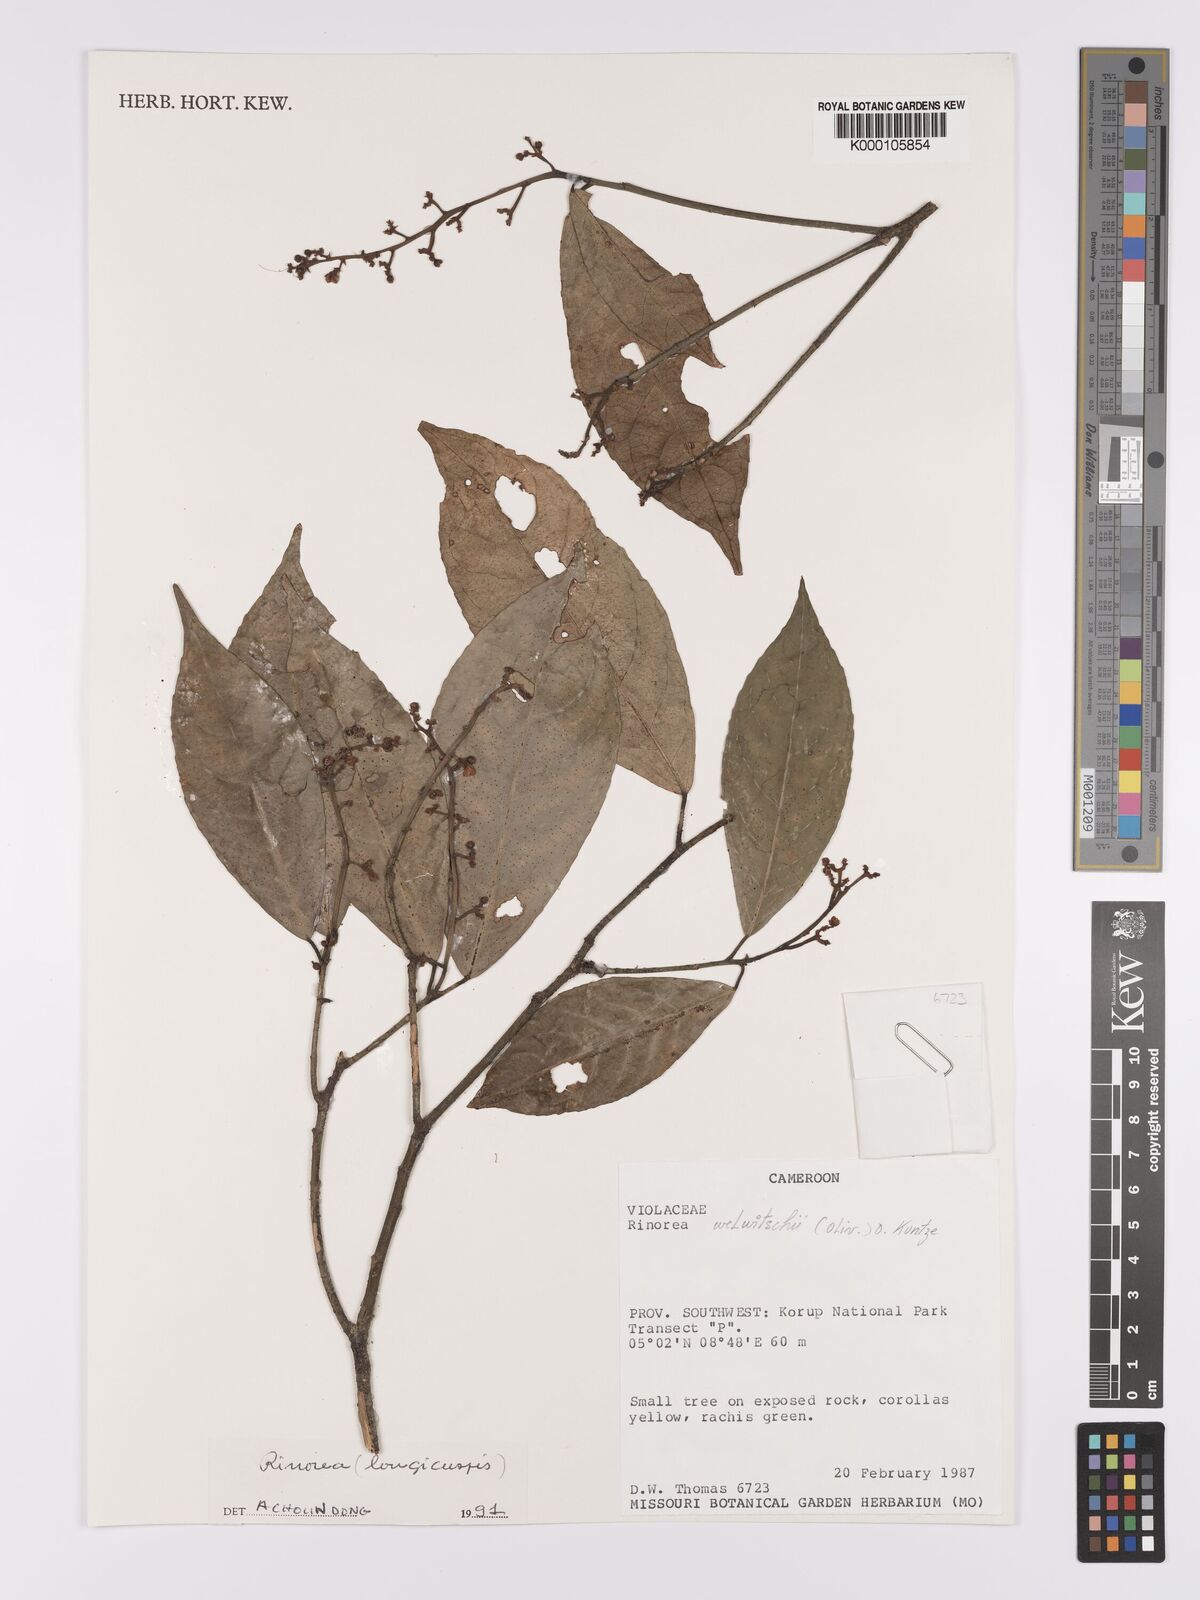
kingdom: Plantae
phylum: Tracheophyta
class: Magnoliopsida
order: Malpighiales
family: Violaceae
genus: Rinorea
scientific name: Rinorea welwitschii
